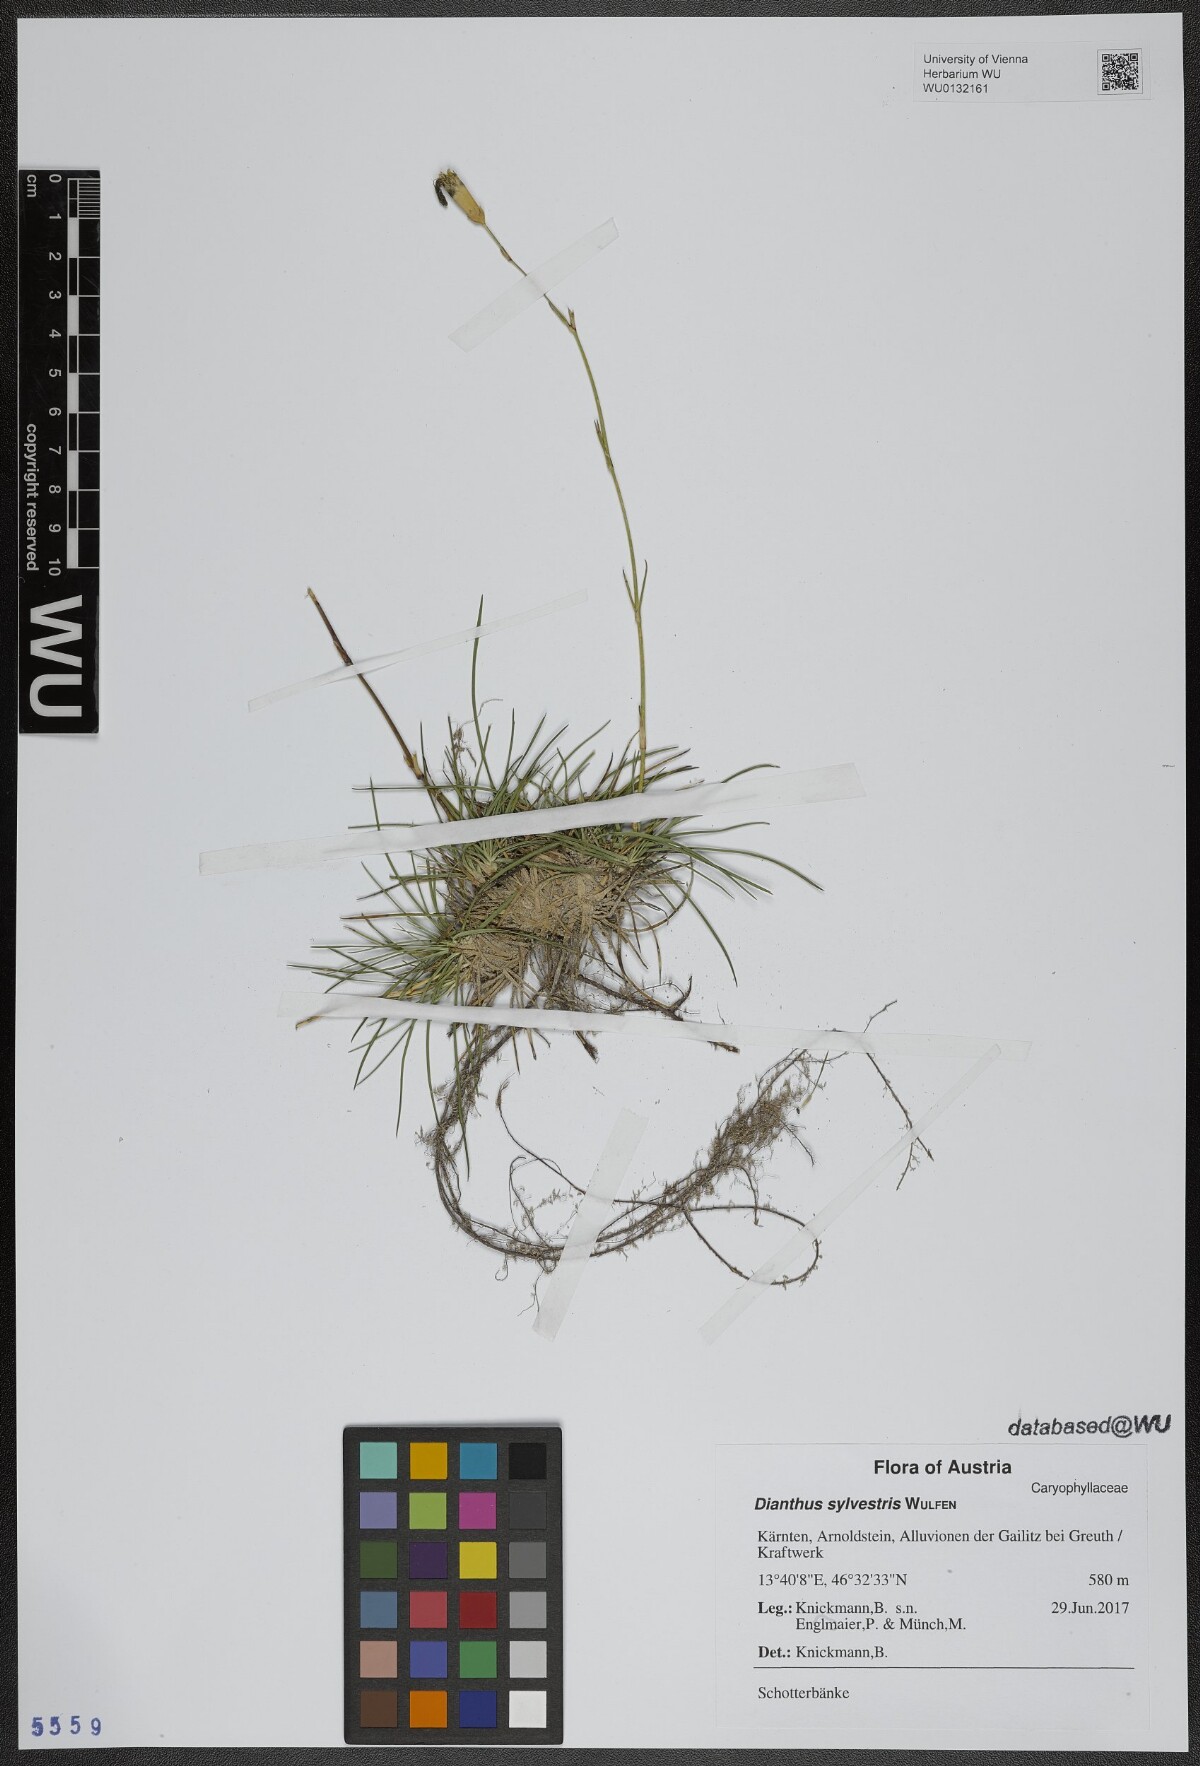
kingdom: Plantae
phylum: Tracheophyta
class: Magnoliopsida
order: Caryophyllales
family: Caryophyllaceae
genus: Dianthus
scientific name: Dianthus sylvestris
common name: Wood pink
